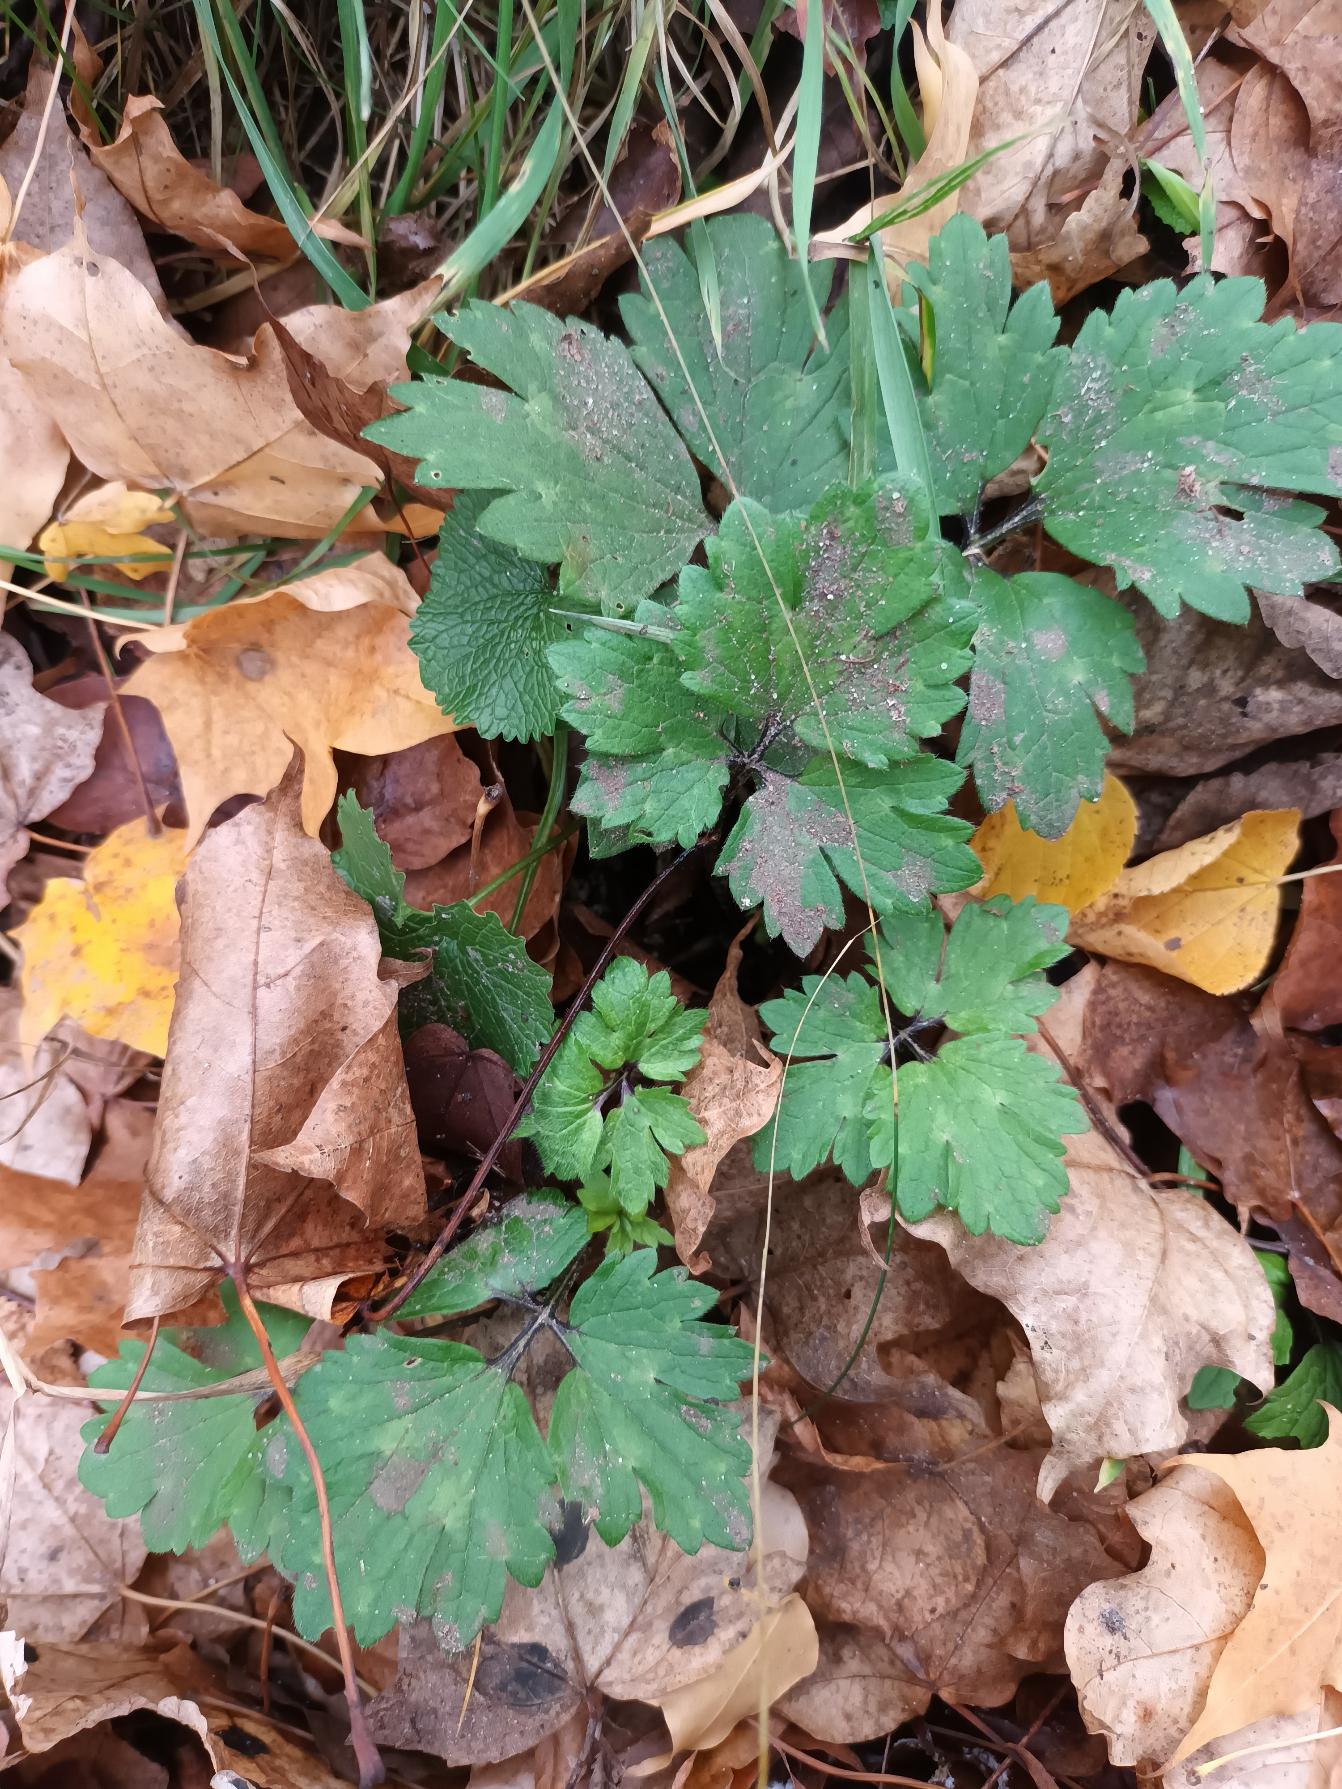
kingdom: Plantae
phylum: Tracheophyta
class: Magnoliopsida
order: Ranunculales
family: Ranunculaceae
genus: Ranunculus
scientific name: Ranunculus repens
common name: Lav ranunkel
